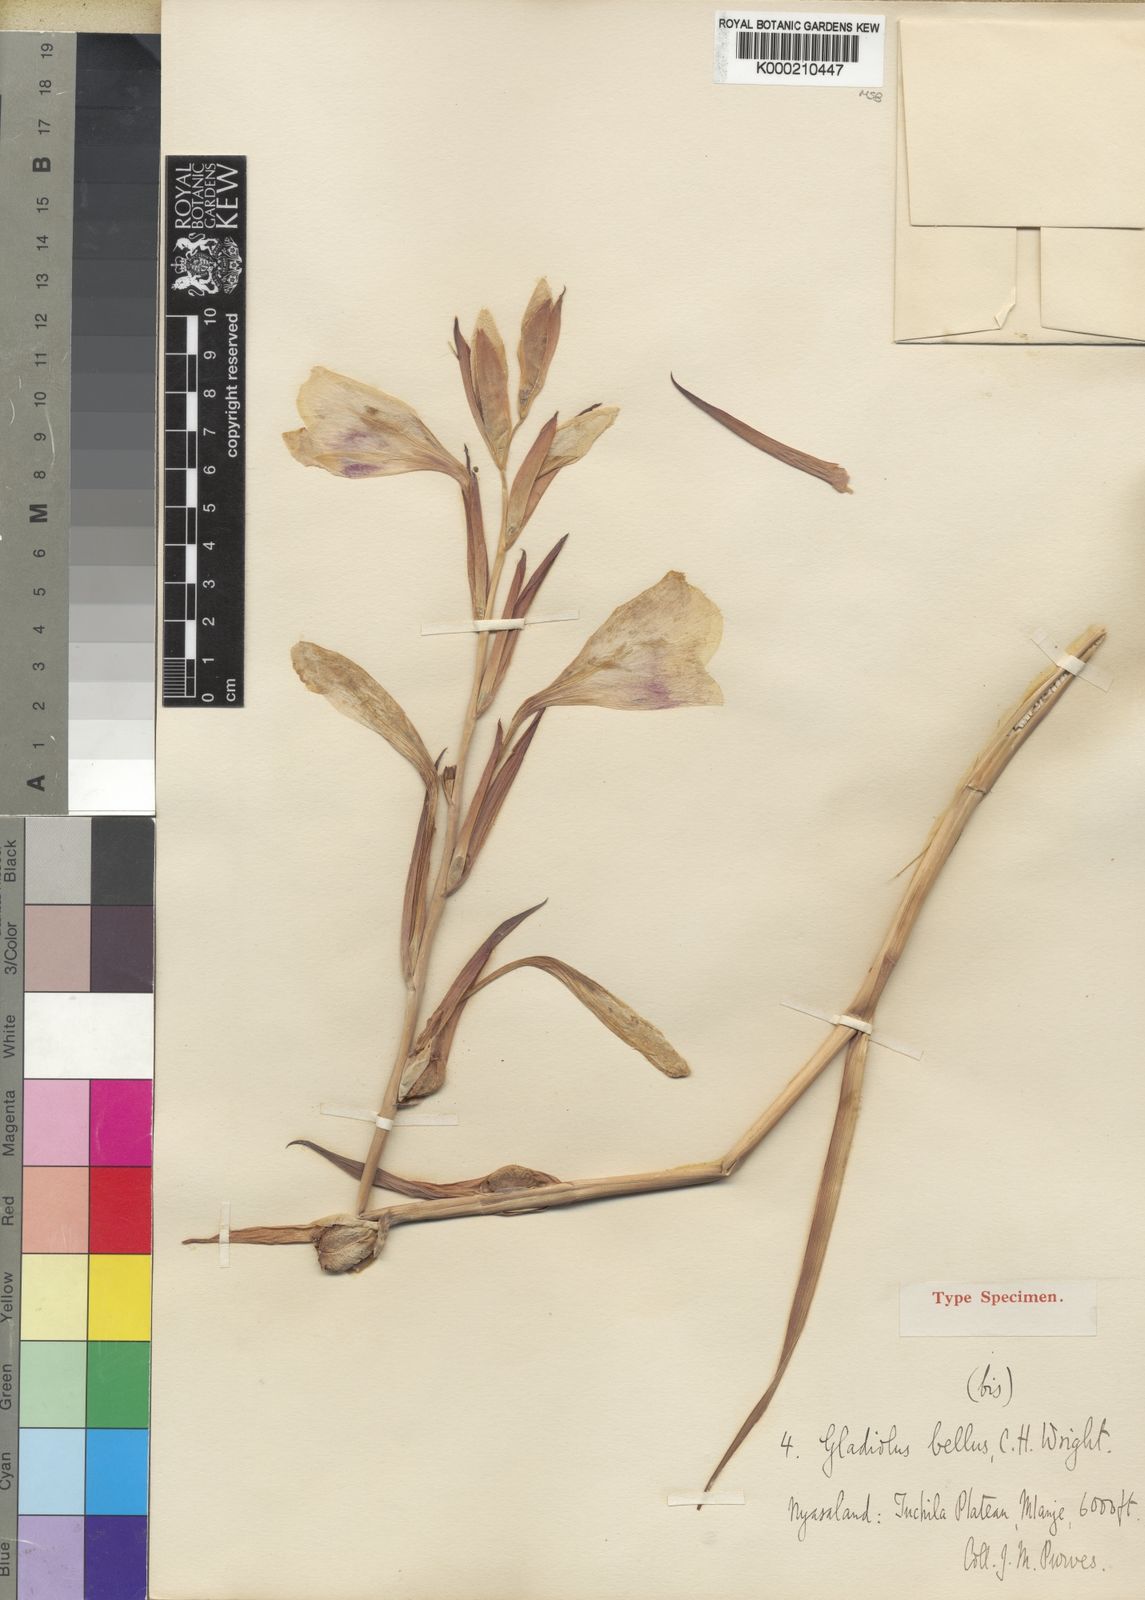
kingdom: Plantae
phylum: Tracheophyta
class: Liliopsida
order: Asparagales
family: Iridaceae
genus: Gladiolus
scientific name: Gladiolus bellus
